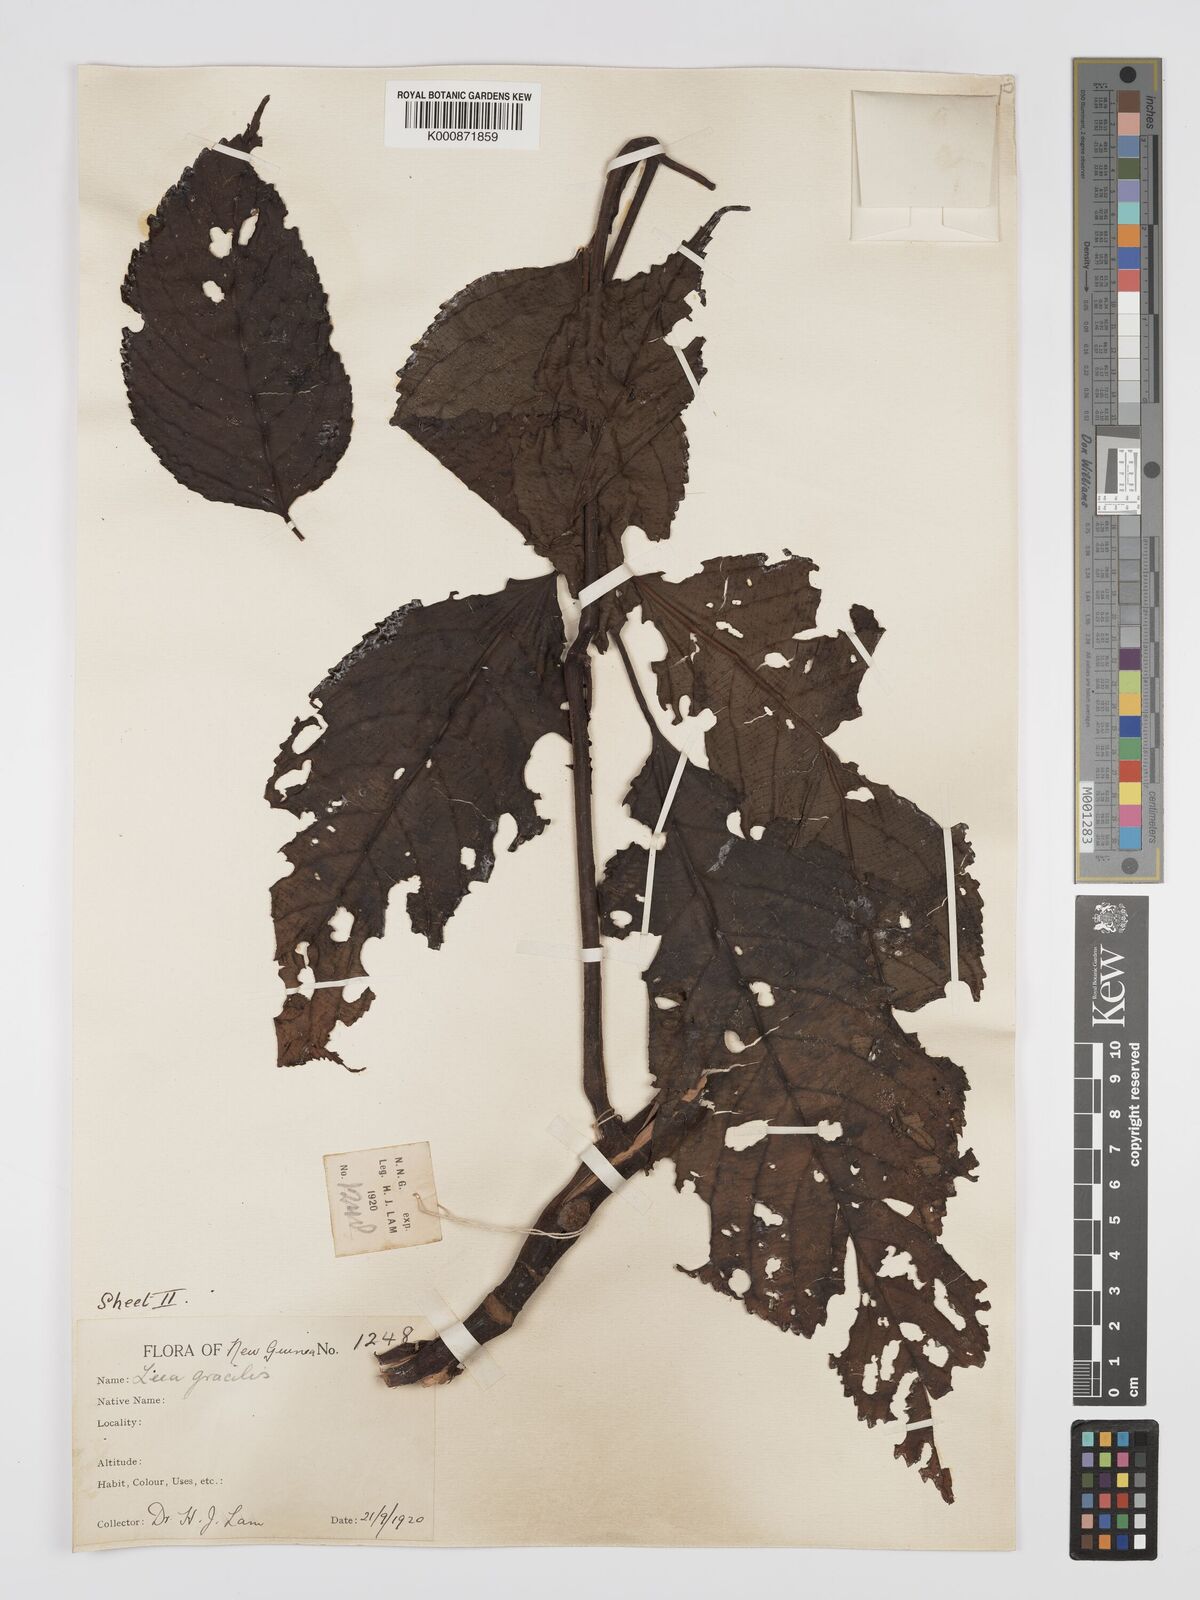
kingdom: Plantae
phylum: Tracheophyta
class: Magnoliopsida
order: Vitales
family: Vitaceae
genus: Leea
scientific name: Leea indica
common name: Bandicoot-berry
